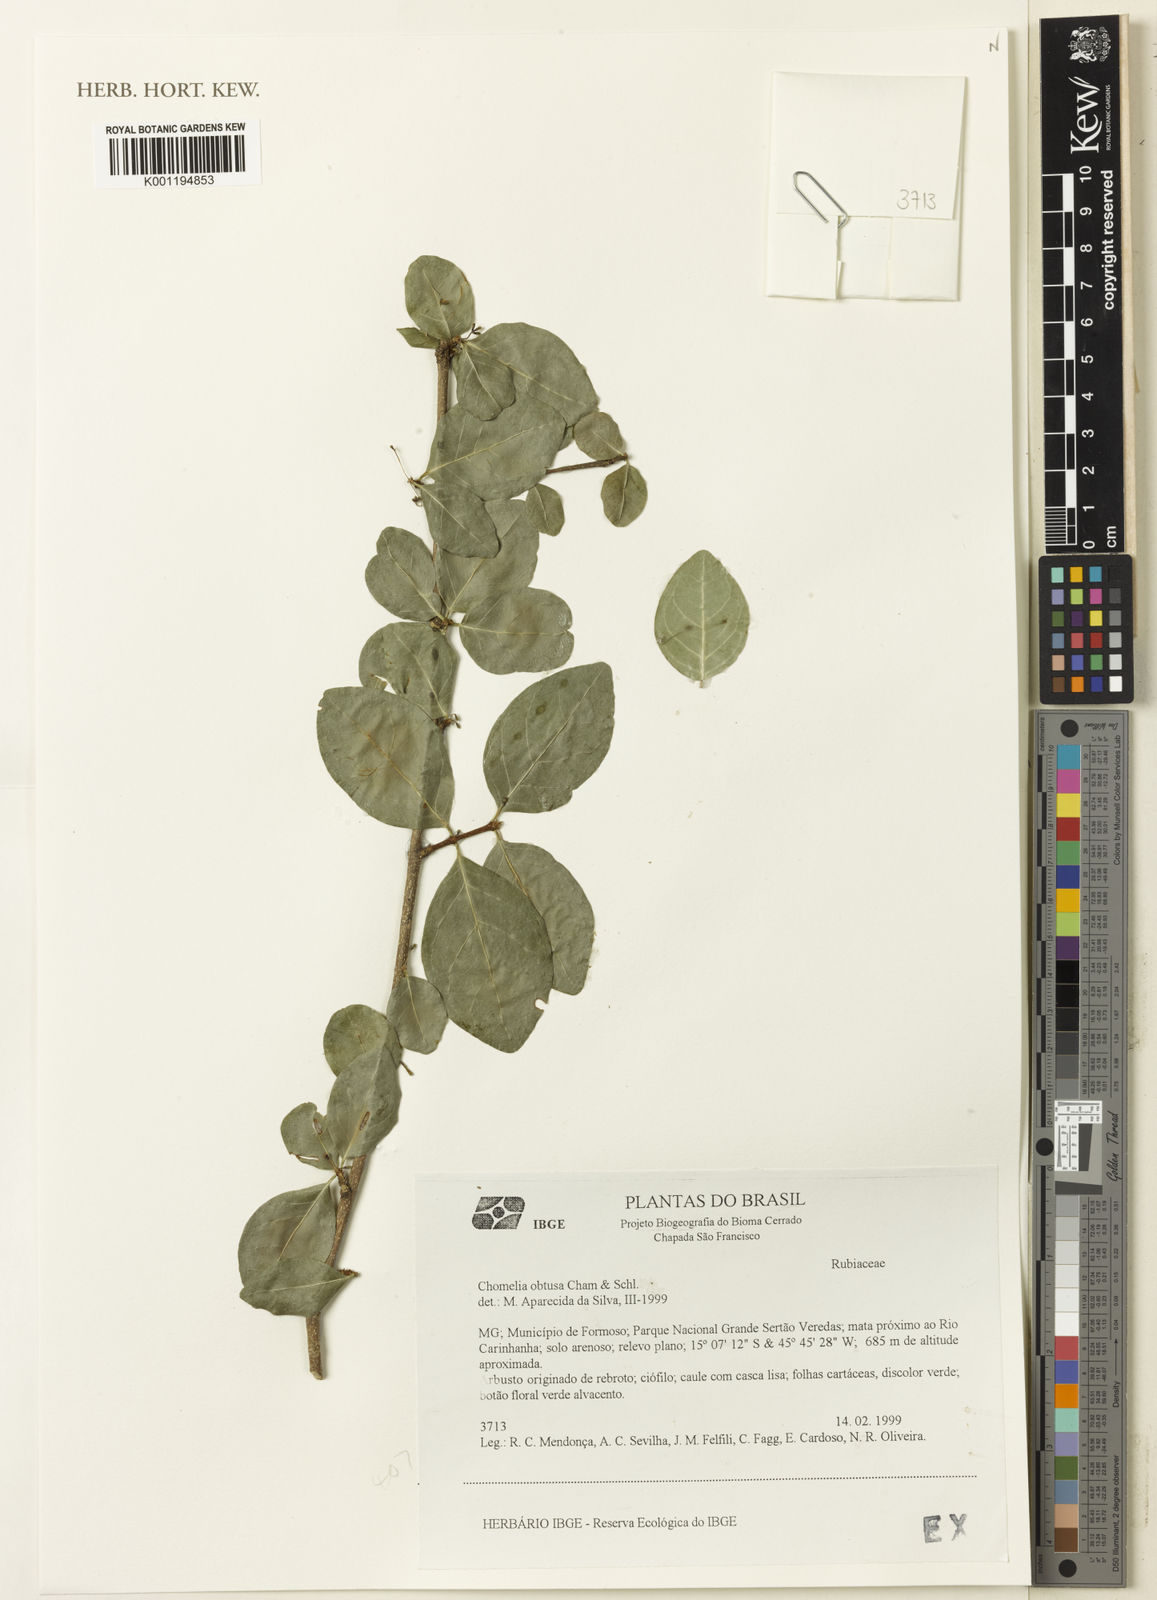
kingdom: Plantae
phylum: Tracheophyta
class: Magnoliopsida
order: Gentianales
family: Rubiaceae
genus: Chomelia
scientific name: Chomelia obtusa
